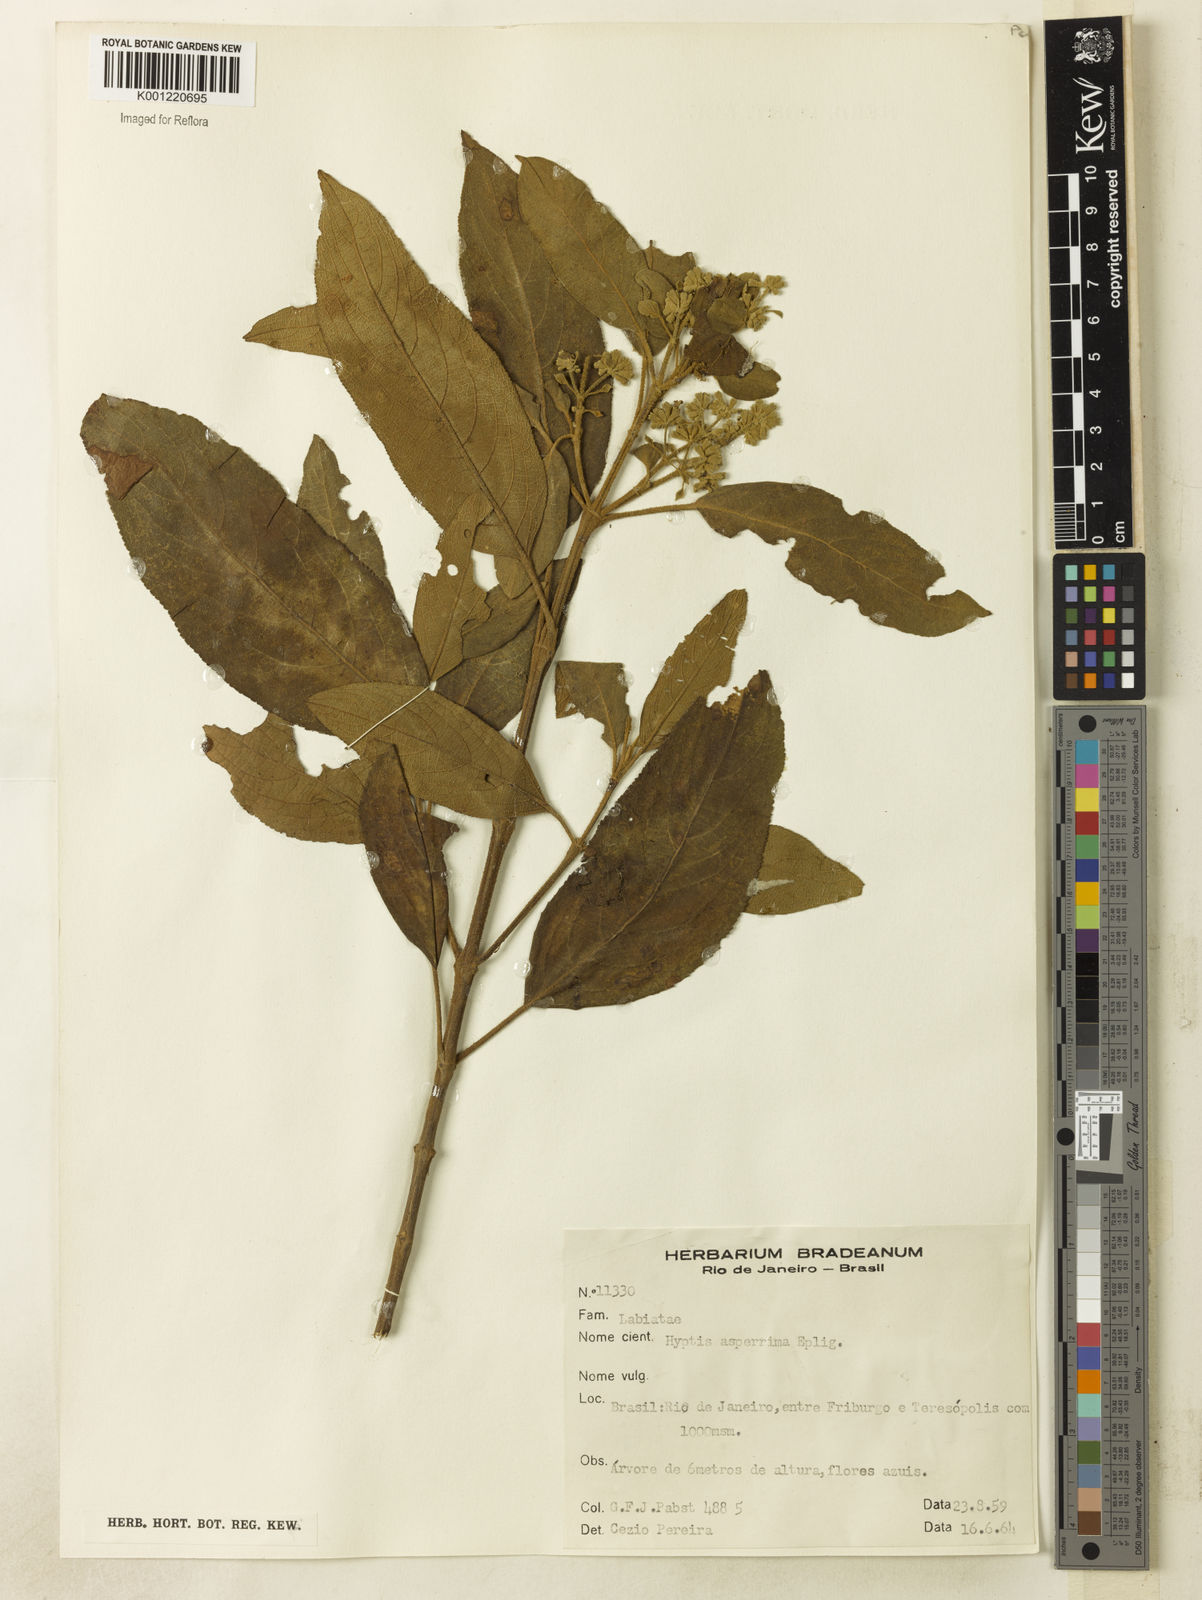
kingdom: Plantae
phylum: Tracheophyta
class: Magnoliopsida
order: Lamiales
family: Lamiaceae
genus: Hyptidendron
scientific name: Hyptidendron asperrimum
